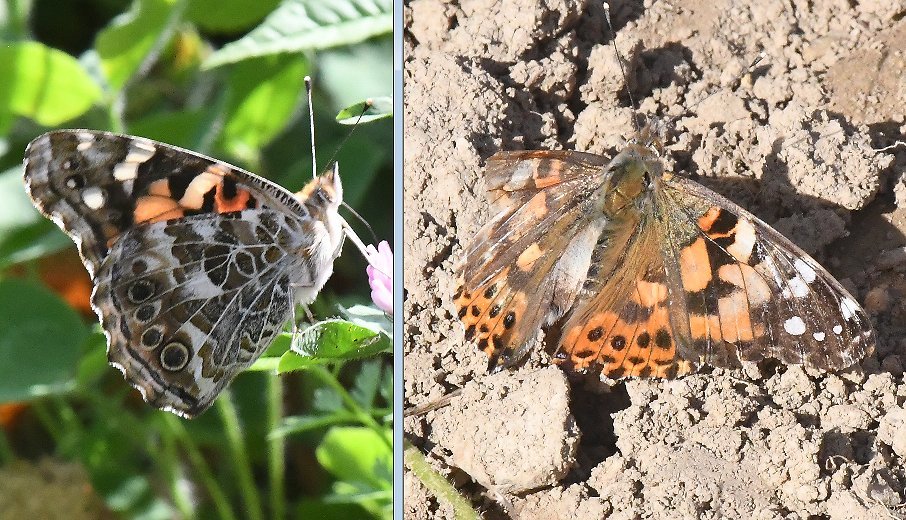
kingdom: Animalia
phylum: Arthropoda
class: Insecta
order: Lepidoptera
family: Nymphalidae
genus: Vanessa
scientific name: Vanessa cardui
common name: Painted Lady
